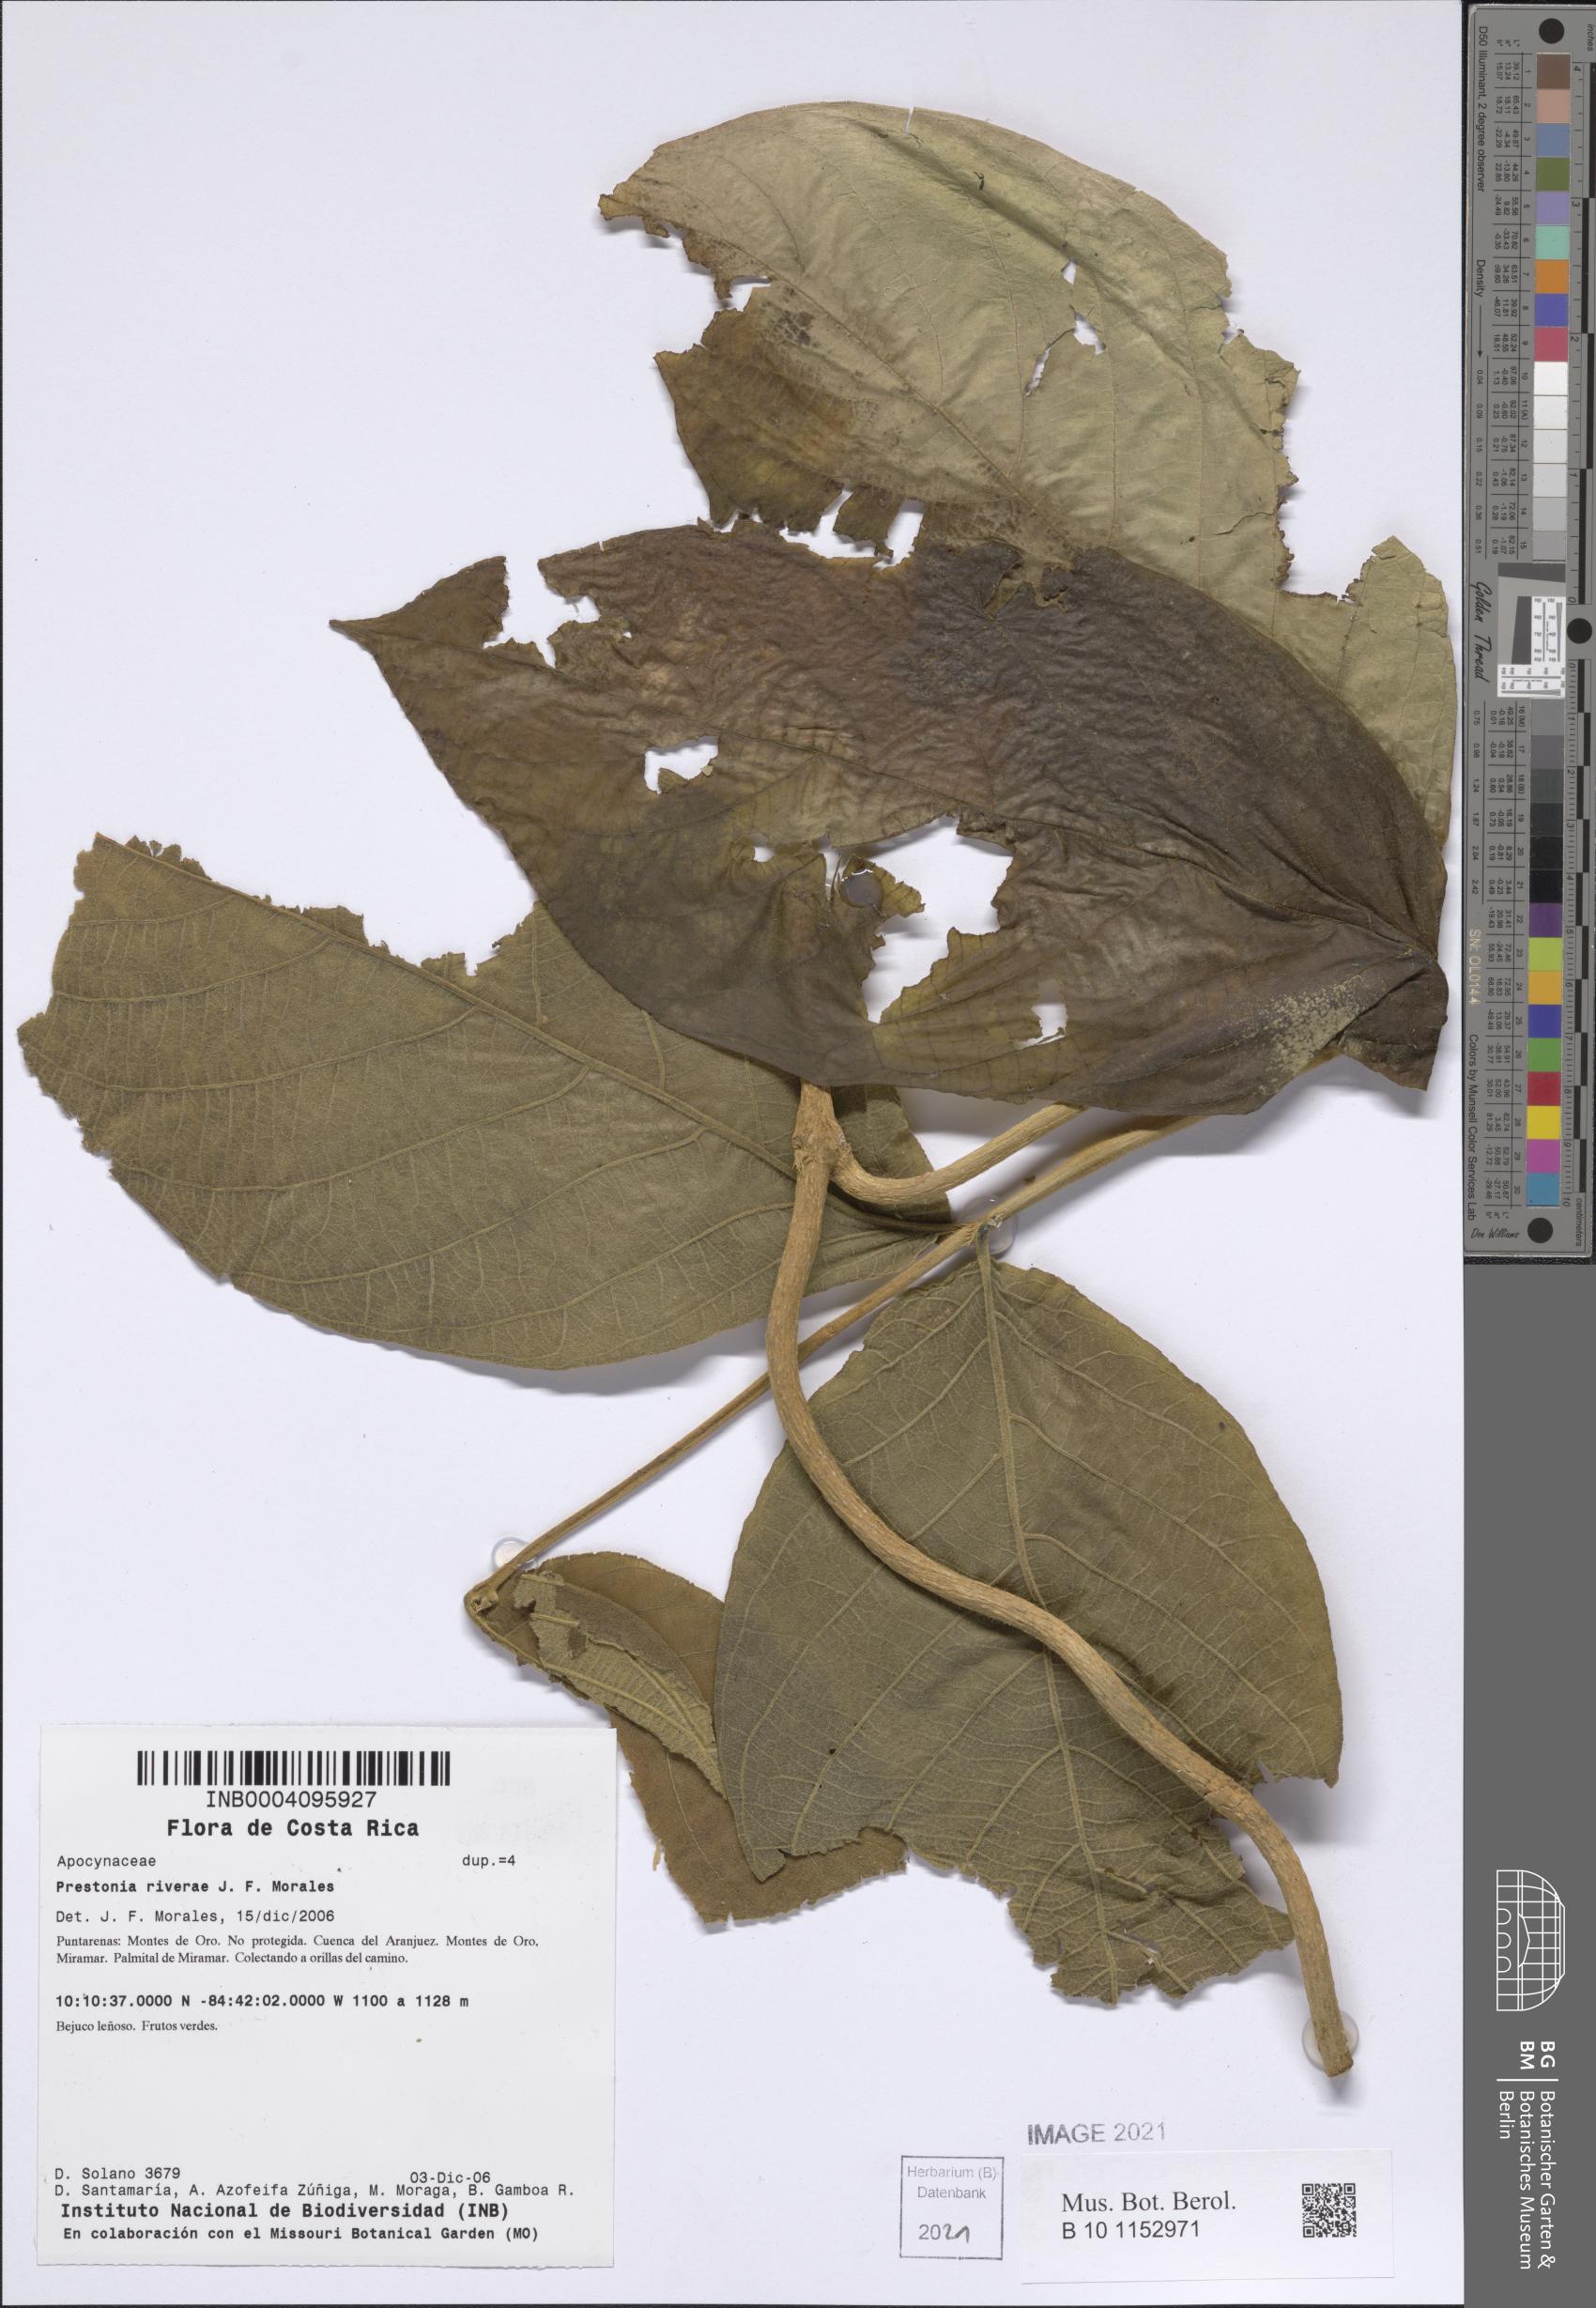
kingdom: Plantae
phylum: Tracheophyta
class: Magnoliopsida
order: Gentianales
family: Apocynaceae
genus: Prestonia
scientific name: Prestonia riverae
